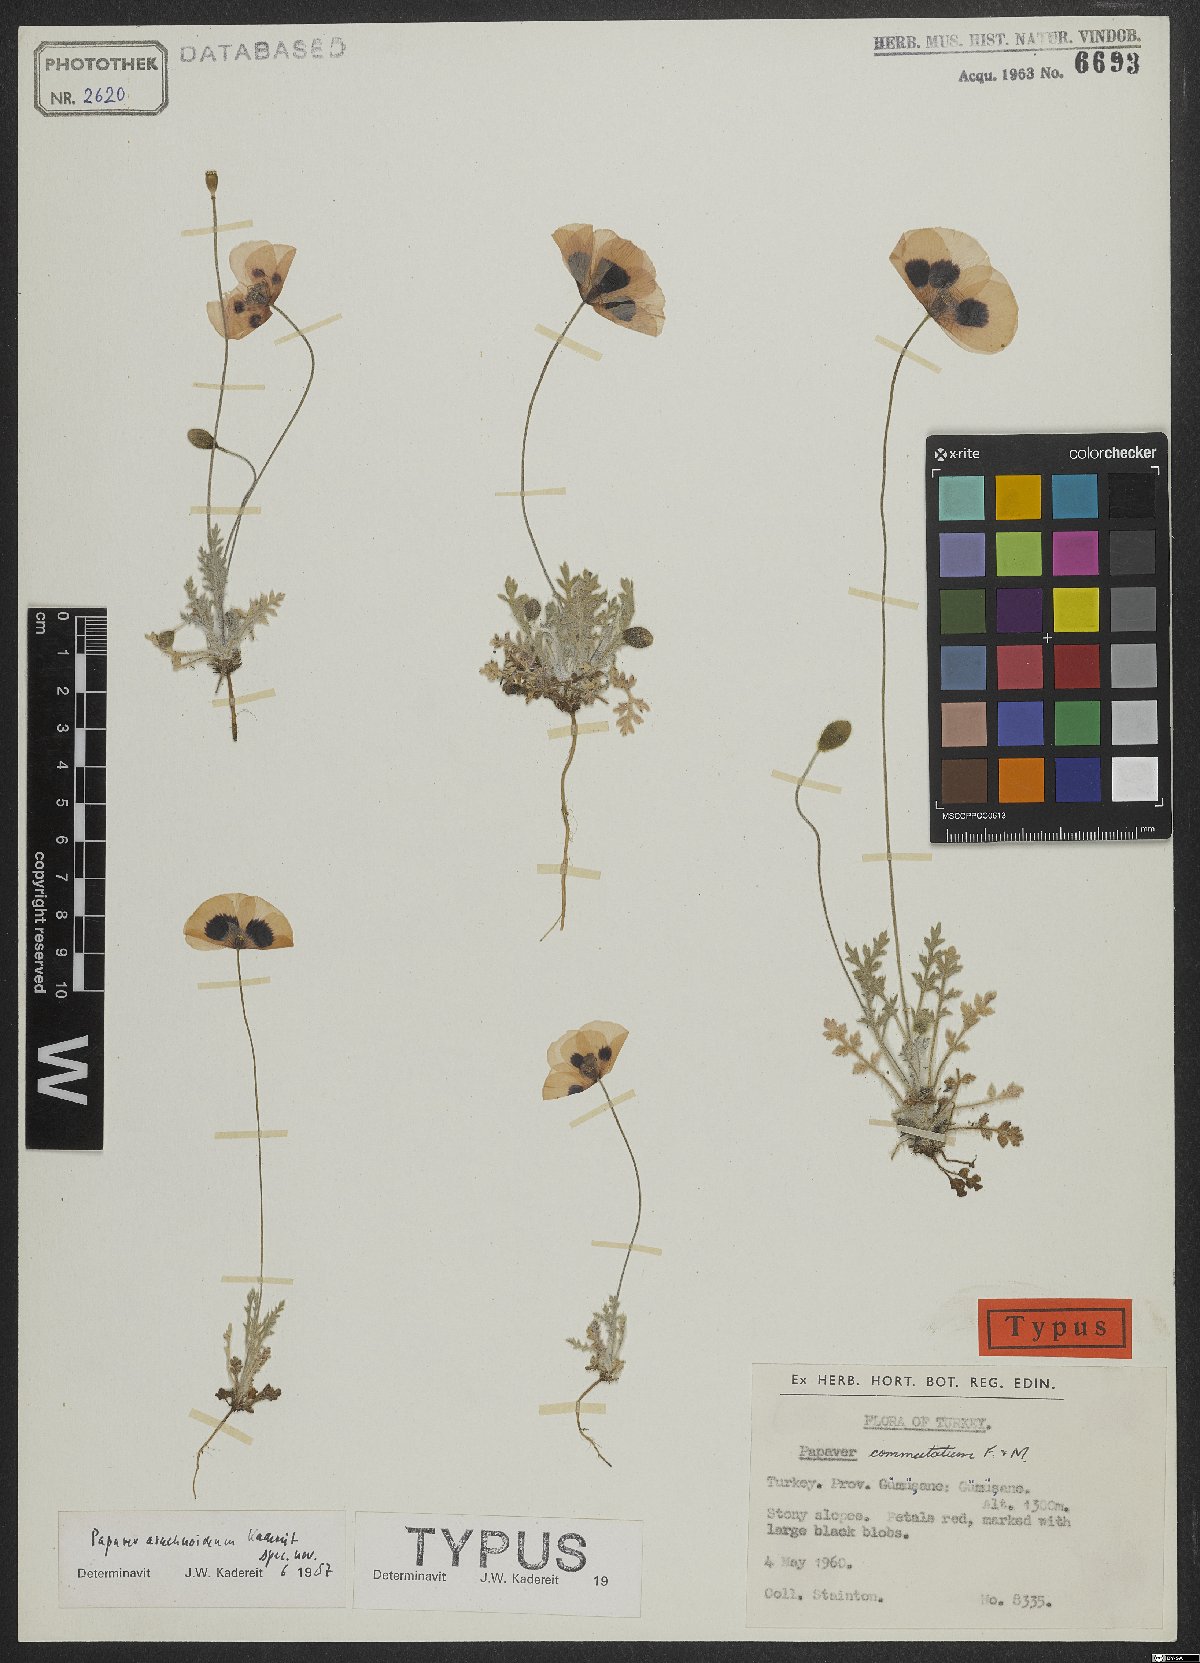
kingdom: Plantae
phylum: Tracheophyta
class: Magnoliopsida
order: Ranunculales
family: Papaveraceae
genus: Papaver
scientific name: Papaver arachnoideum
